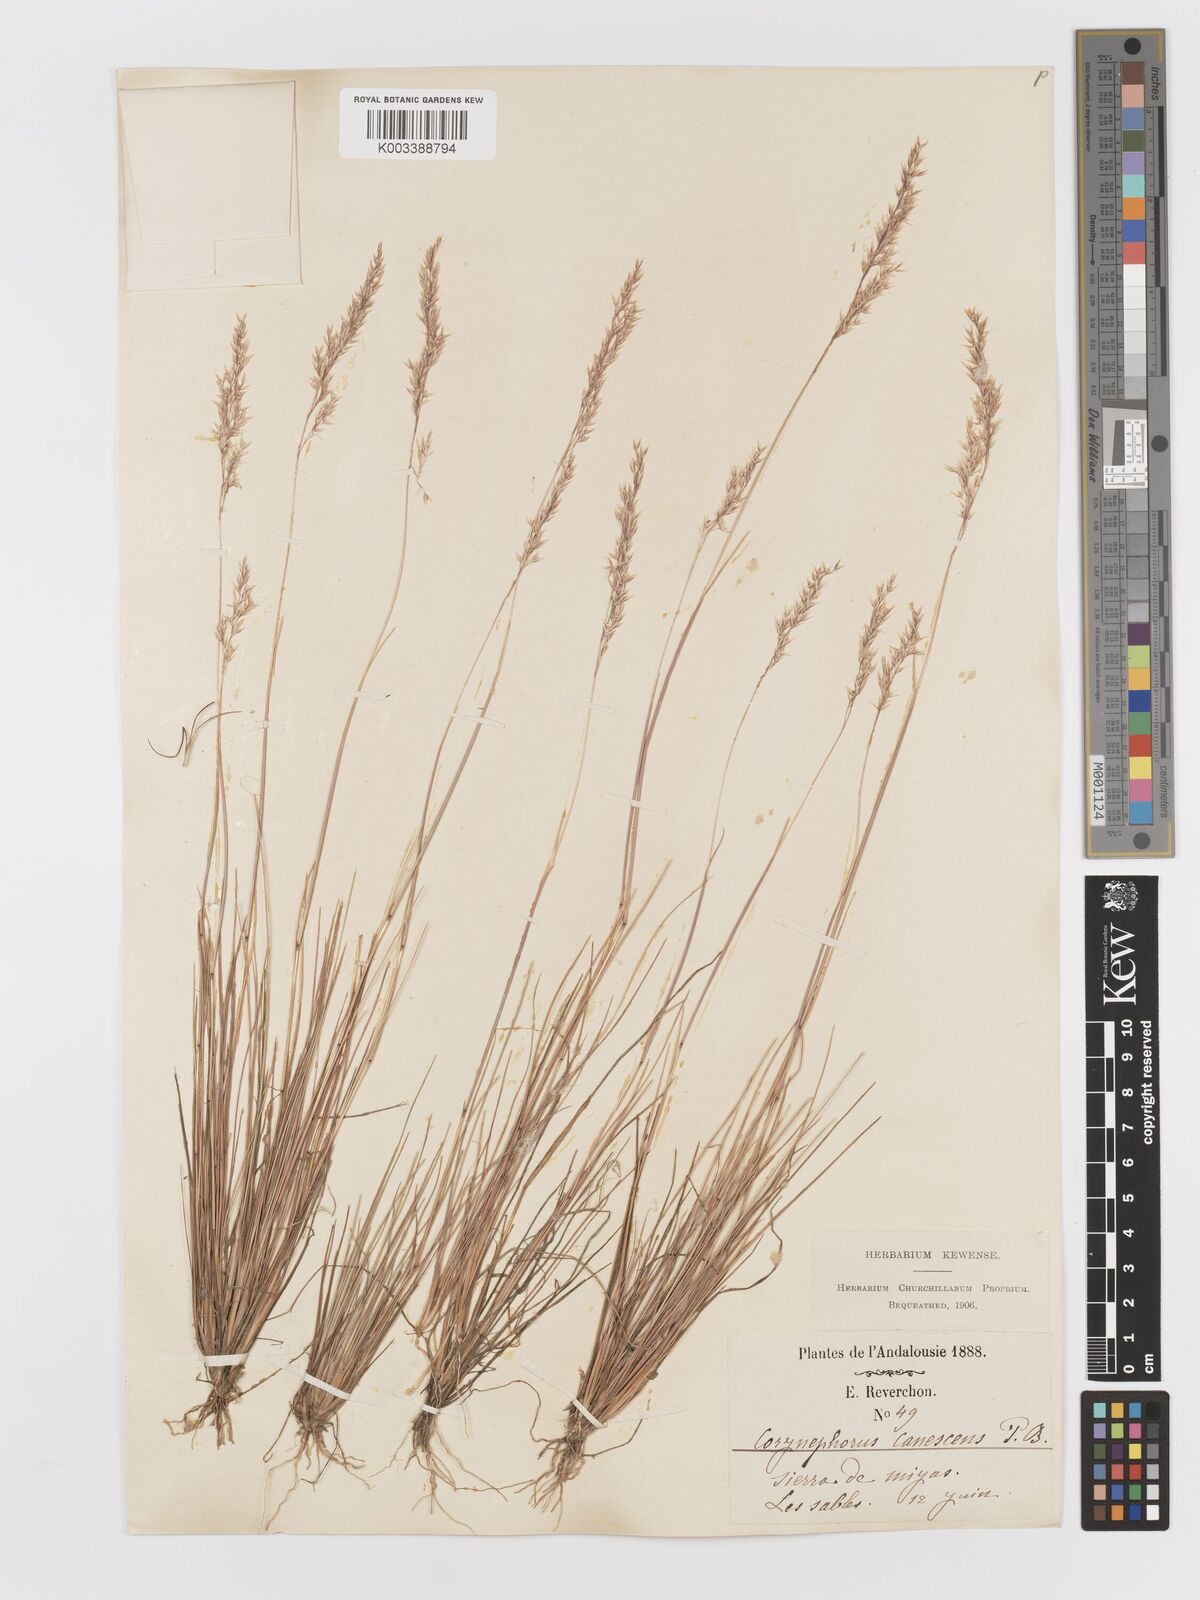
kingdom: Plantae
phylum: Tracheophyta
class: Liliopsida
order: Poales
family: Poaceae
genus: Corynephorus
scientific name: Corynephorus canescens
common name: Grey hair-grass
